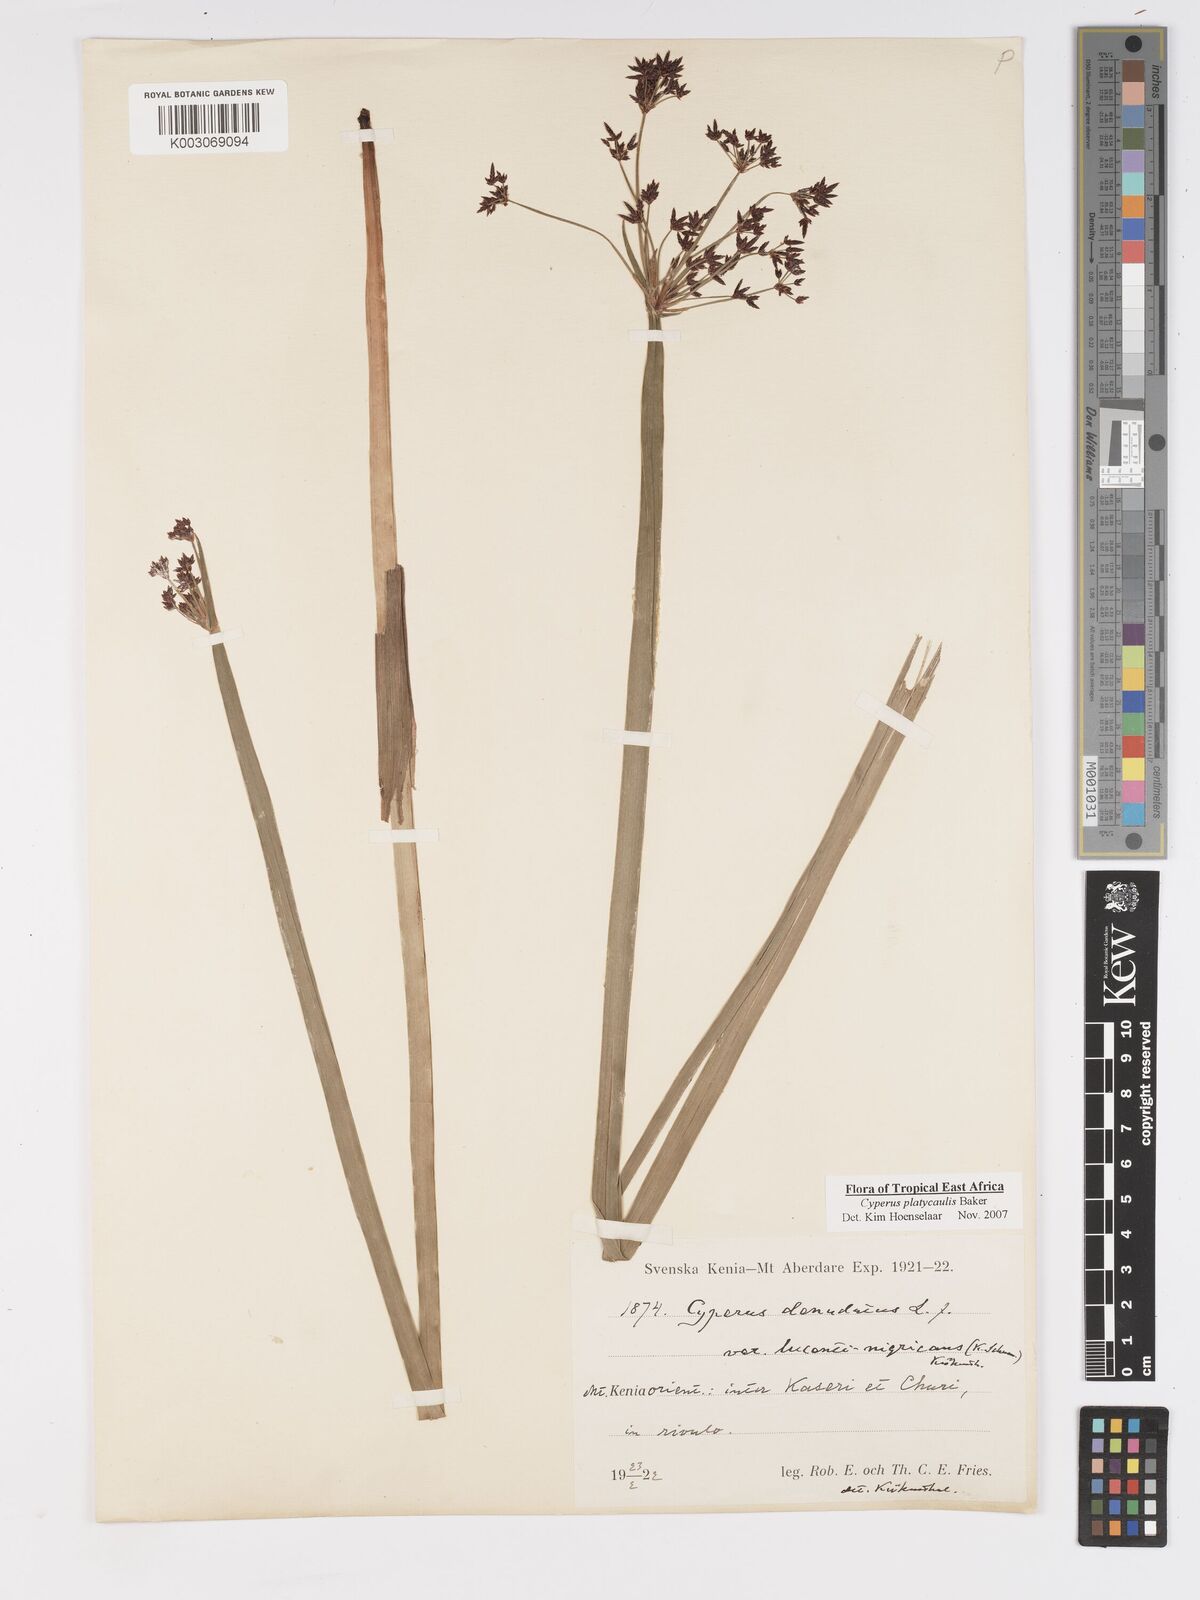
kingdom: Plantae
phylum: Tracheophyta
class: Liliopsida
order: Poales
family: Cyperaceae
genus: Cyperus
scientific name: Cyperus platycaulis
